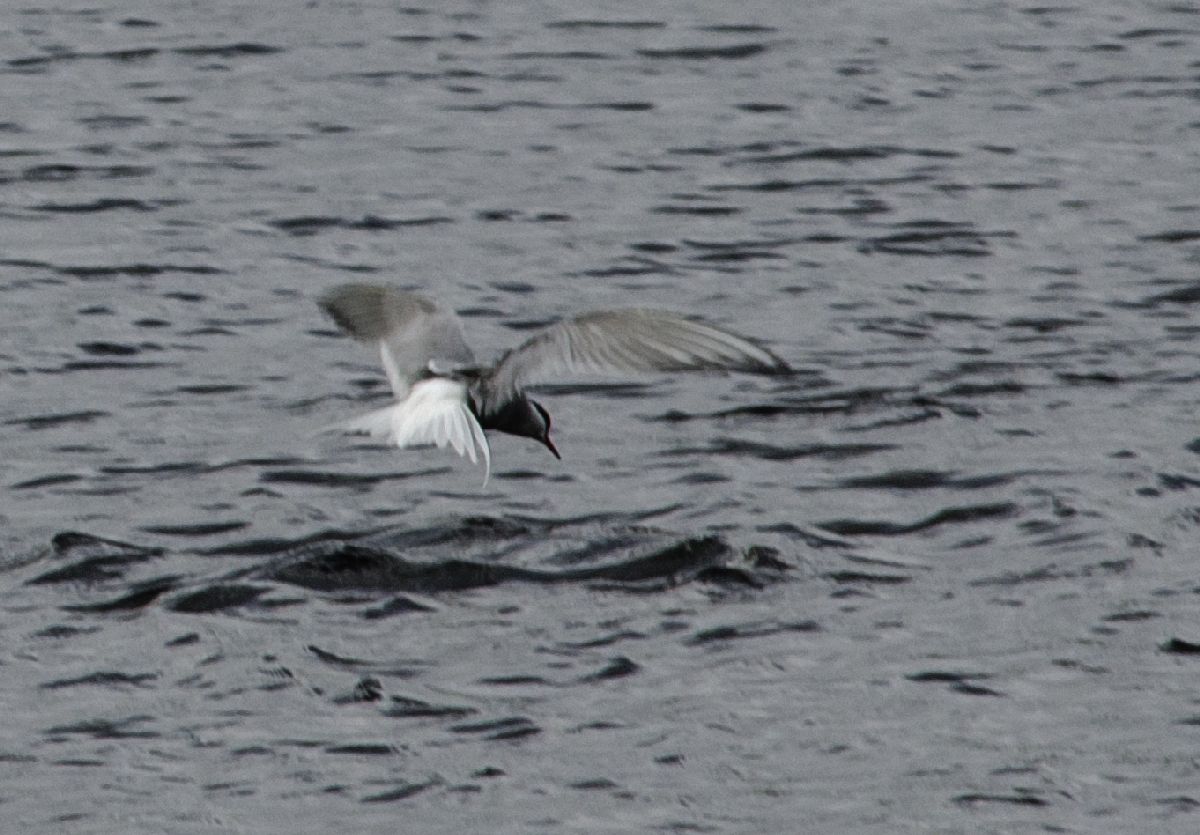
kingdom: Animalia
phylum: Chordata
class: Aves
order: Charadriiformes
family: Laridae
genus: Sterna
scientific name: Sterna paradisaea
